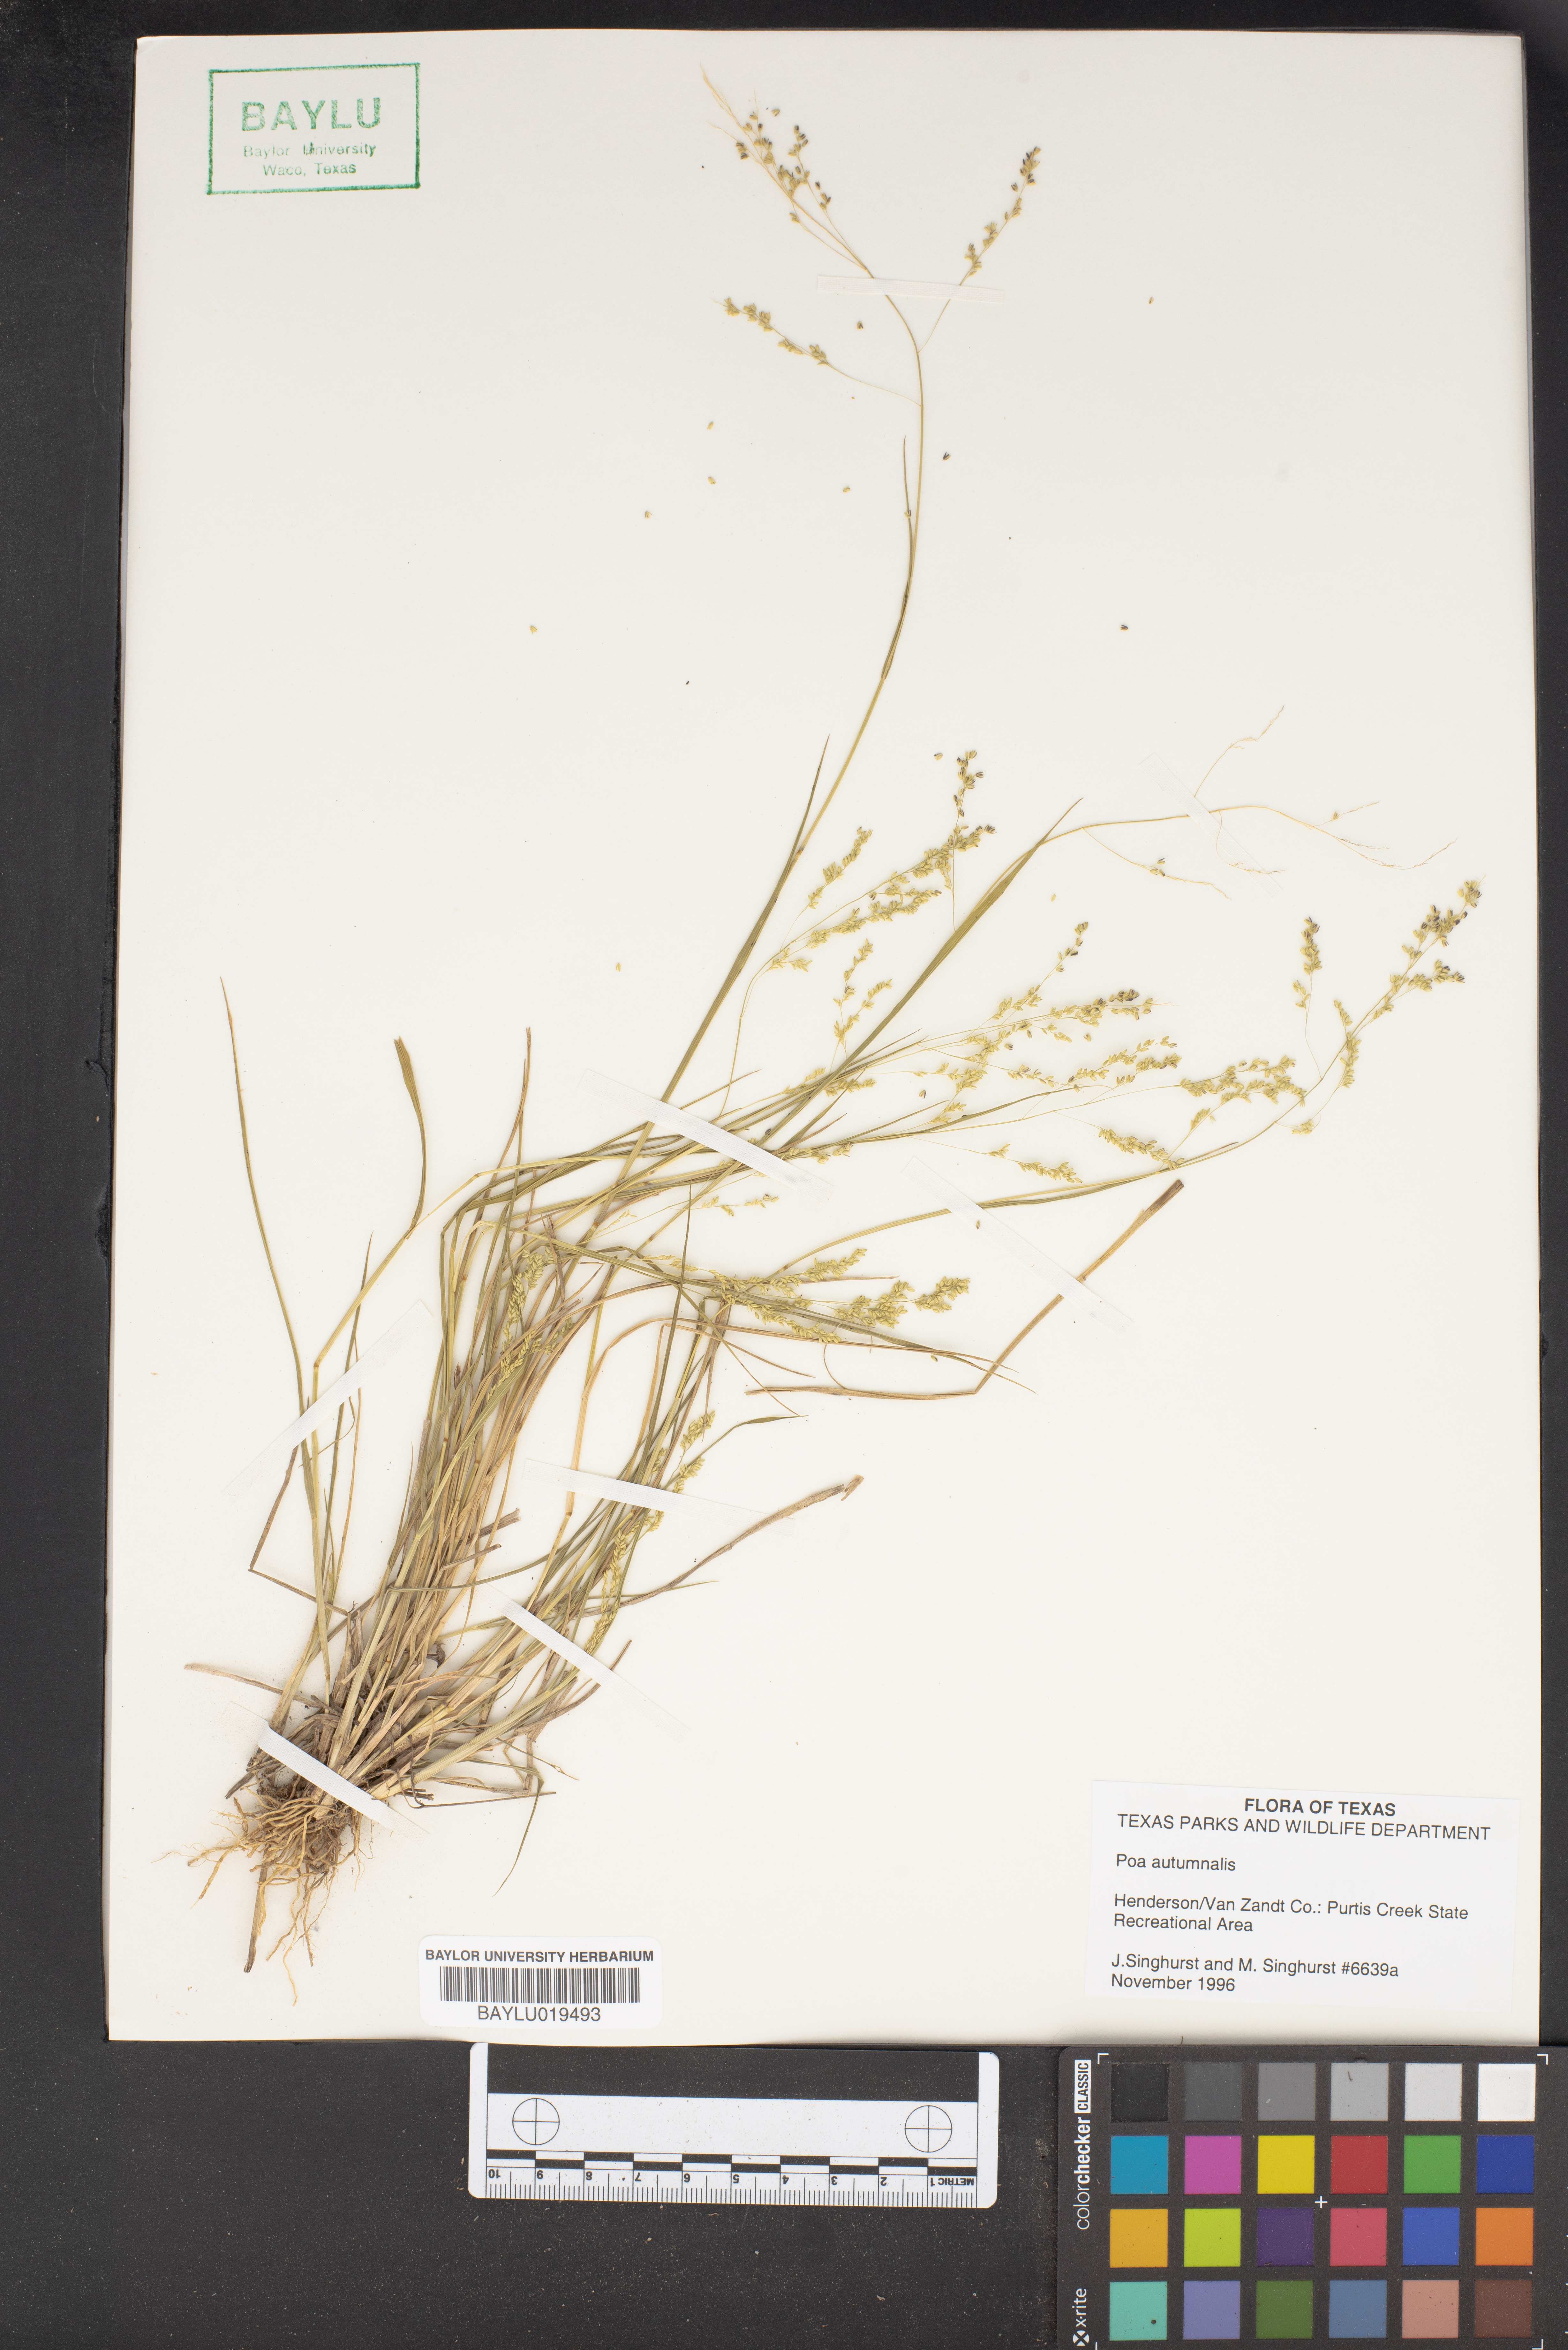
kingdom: Plantae
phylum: Tracheophyta
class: Liliopsida
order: Poales
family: Poaceae
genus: Poa
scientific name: Poa autumnalis
